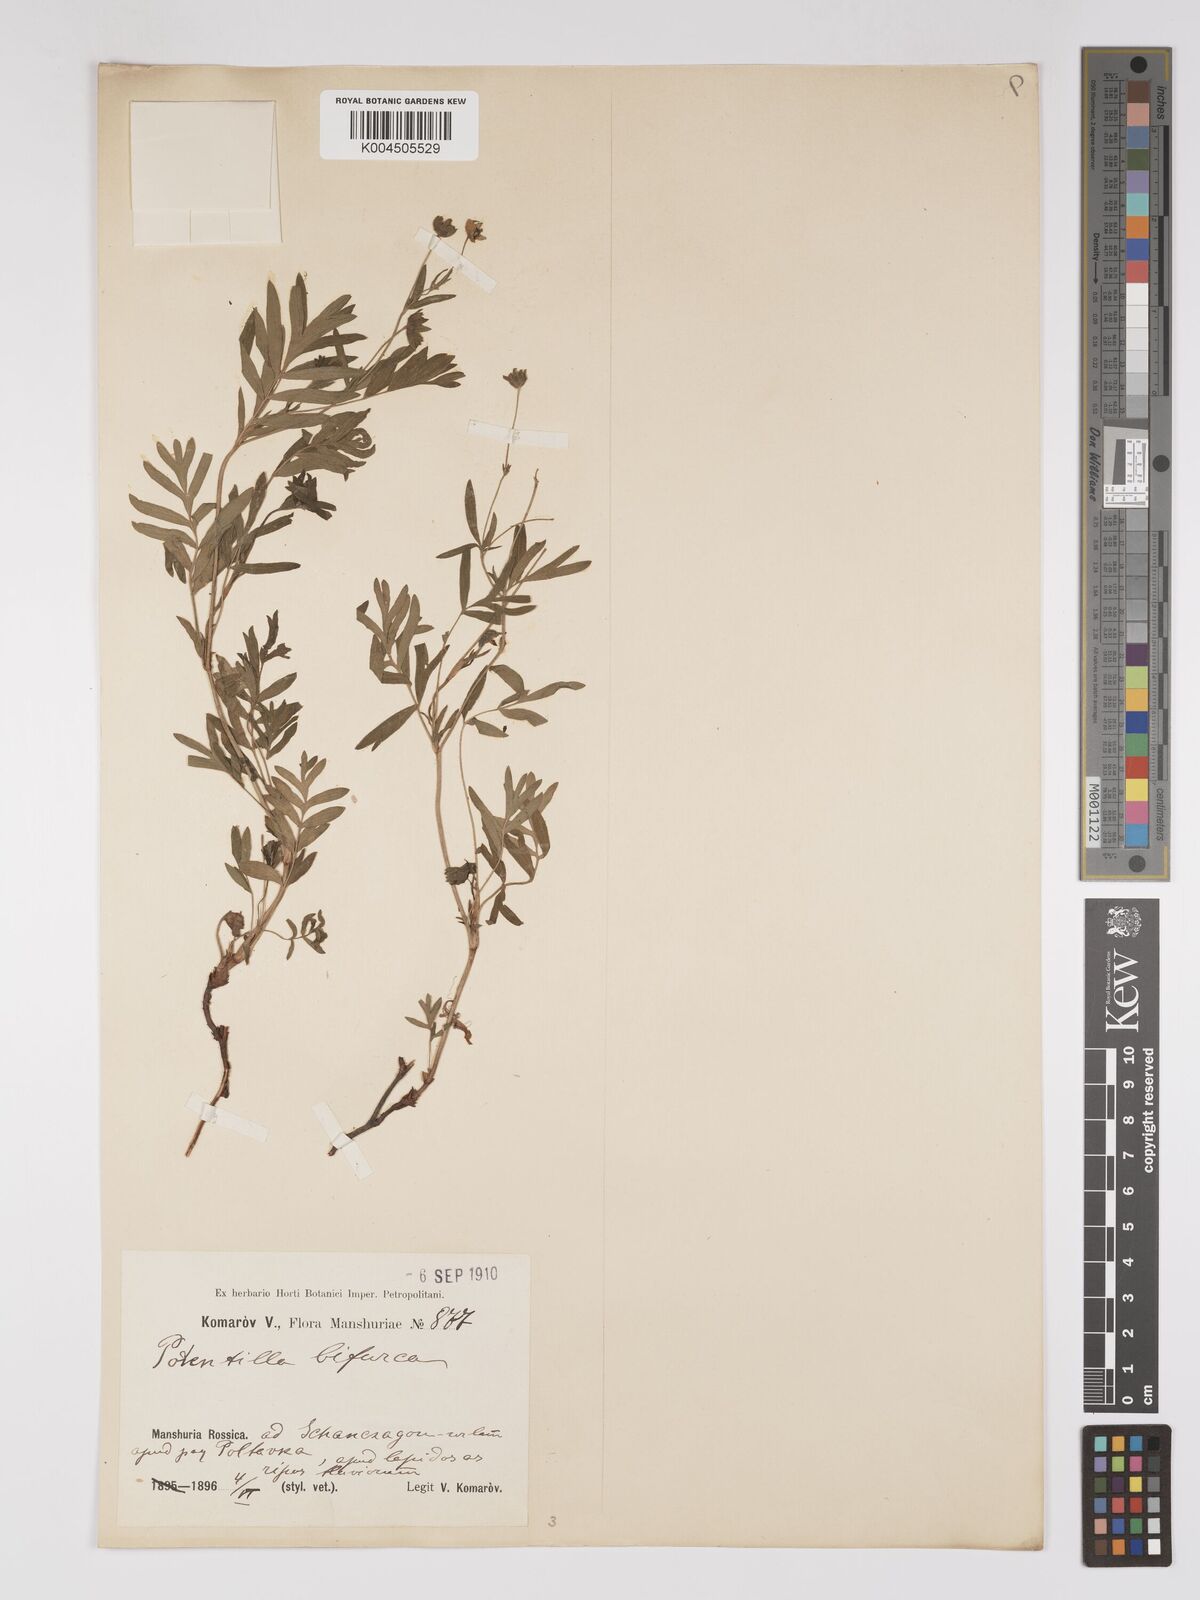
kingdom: Plantae
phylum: Tracheophyta
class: Magnoliopsida
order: Rosales
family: Rosaceae
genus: Sibbaldianthe
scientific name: Sibbaldianthe bifurca
